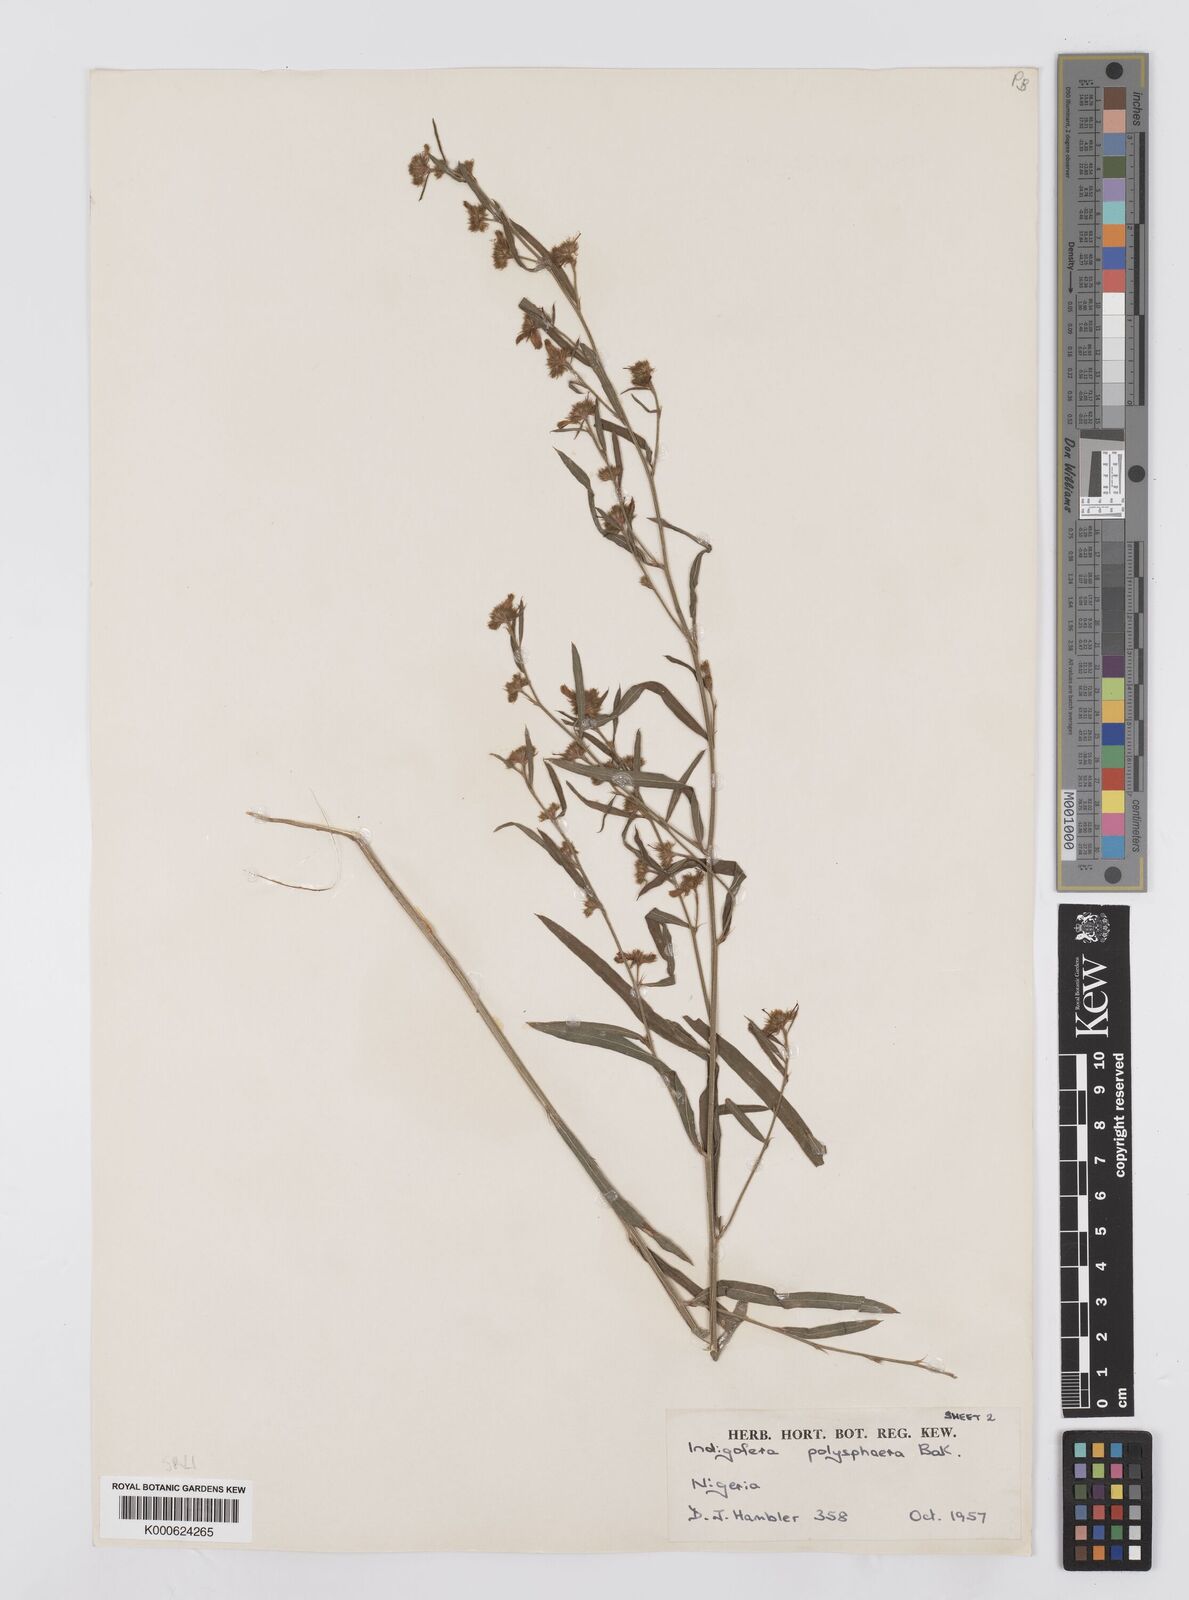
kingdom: Plantae
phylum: Tracheophyta
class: Magnoliopsida
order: Fabales
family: Fabaceae
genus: Indigofera
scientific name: Indigofera polysphaera
